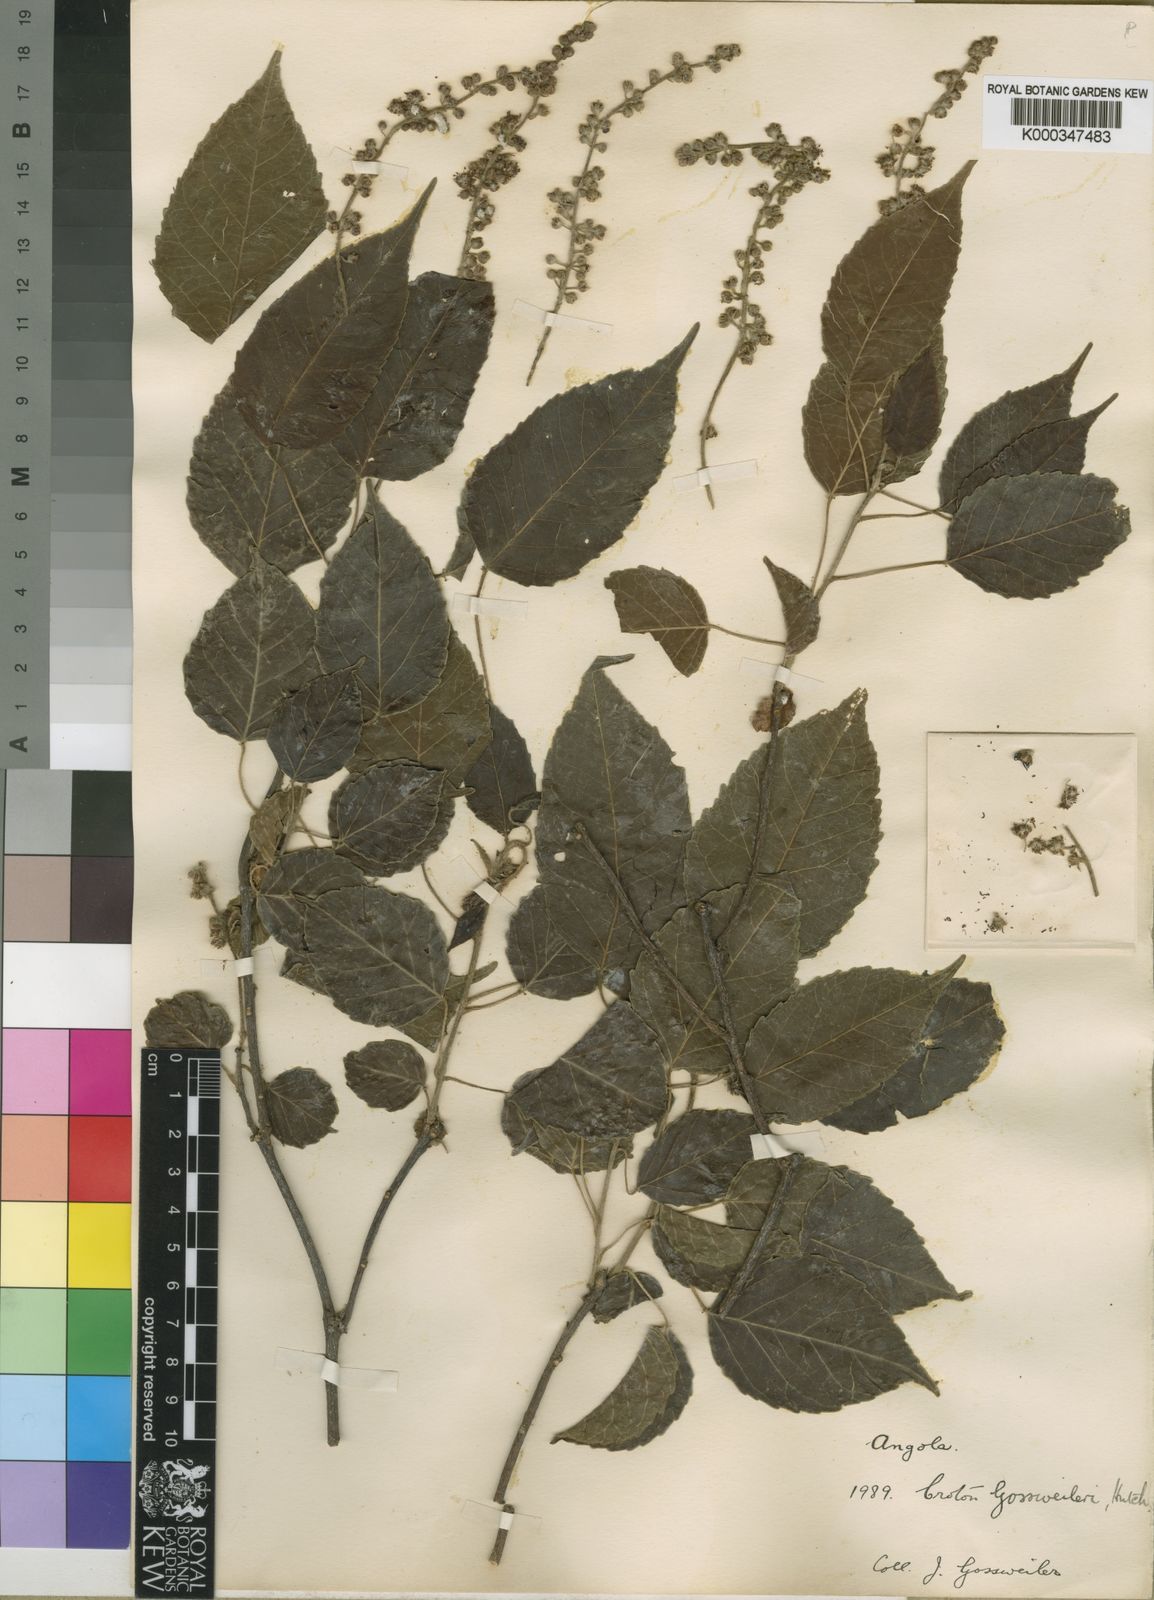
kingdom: Plantae
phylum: Tracheophyta
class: Magnoliopsida
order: Malpighiales
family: Euphorbiaceae
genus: Croton
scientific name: Croton gossweileri
